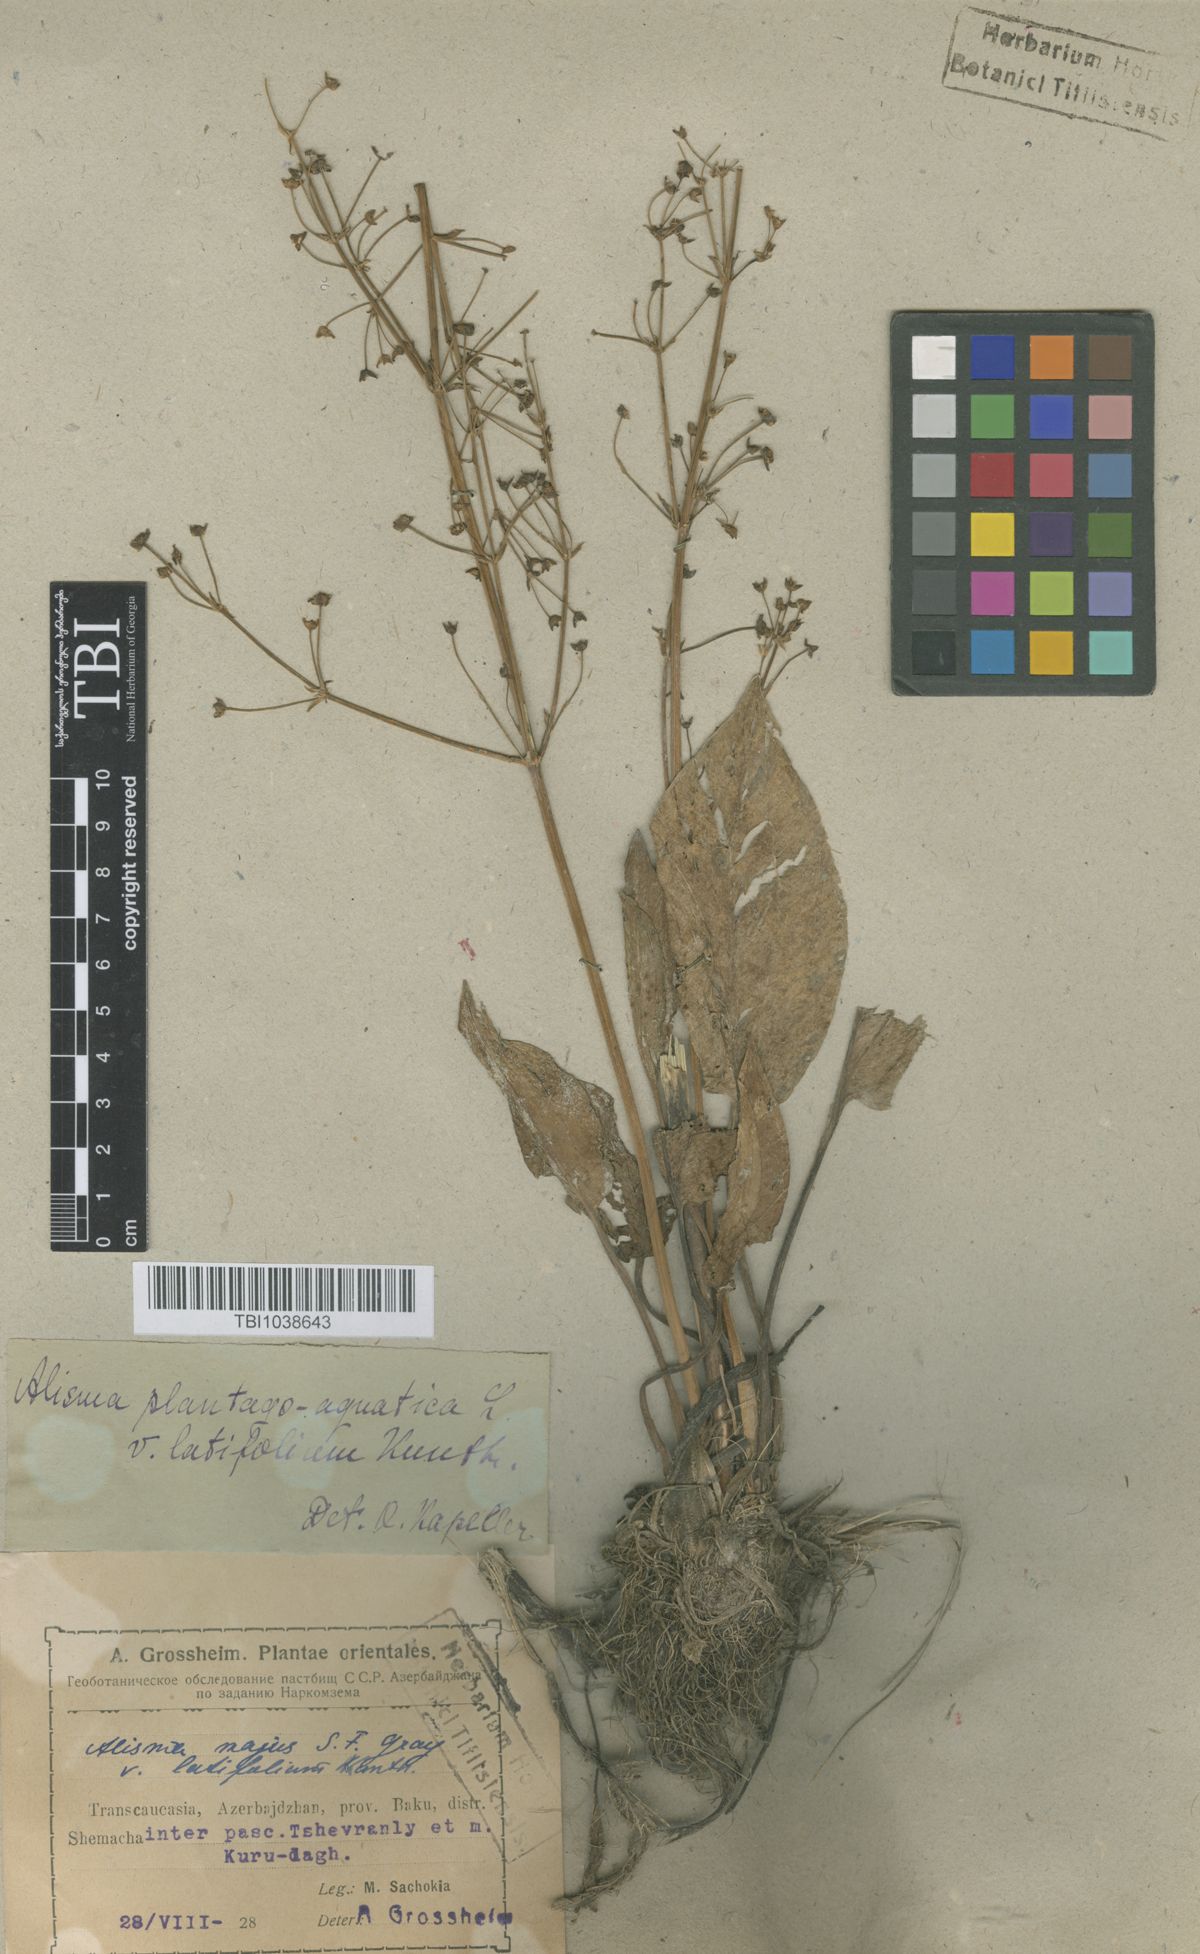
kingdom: Plantae
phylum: Tracheophyta
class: Liliopsida
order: Alismatales
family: Alismataceae
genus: Alisma
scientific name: Alisma plantago-aquatica
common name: Water-plantain
